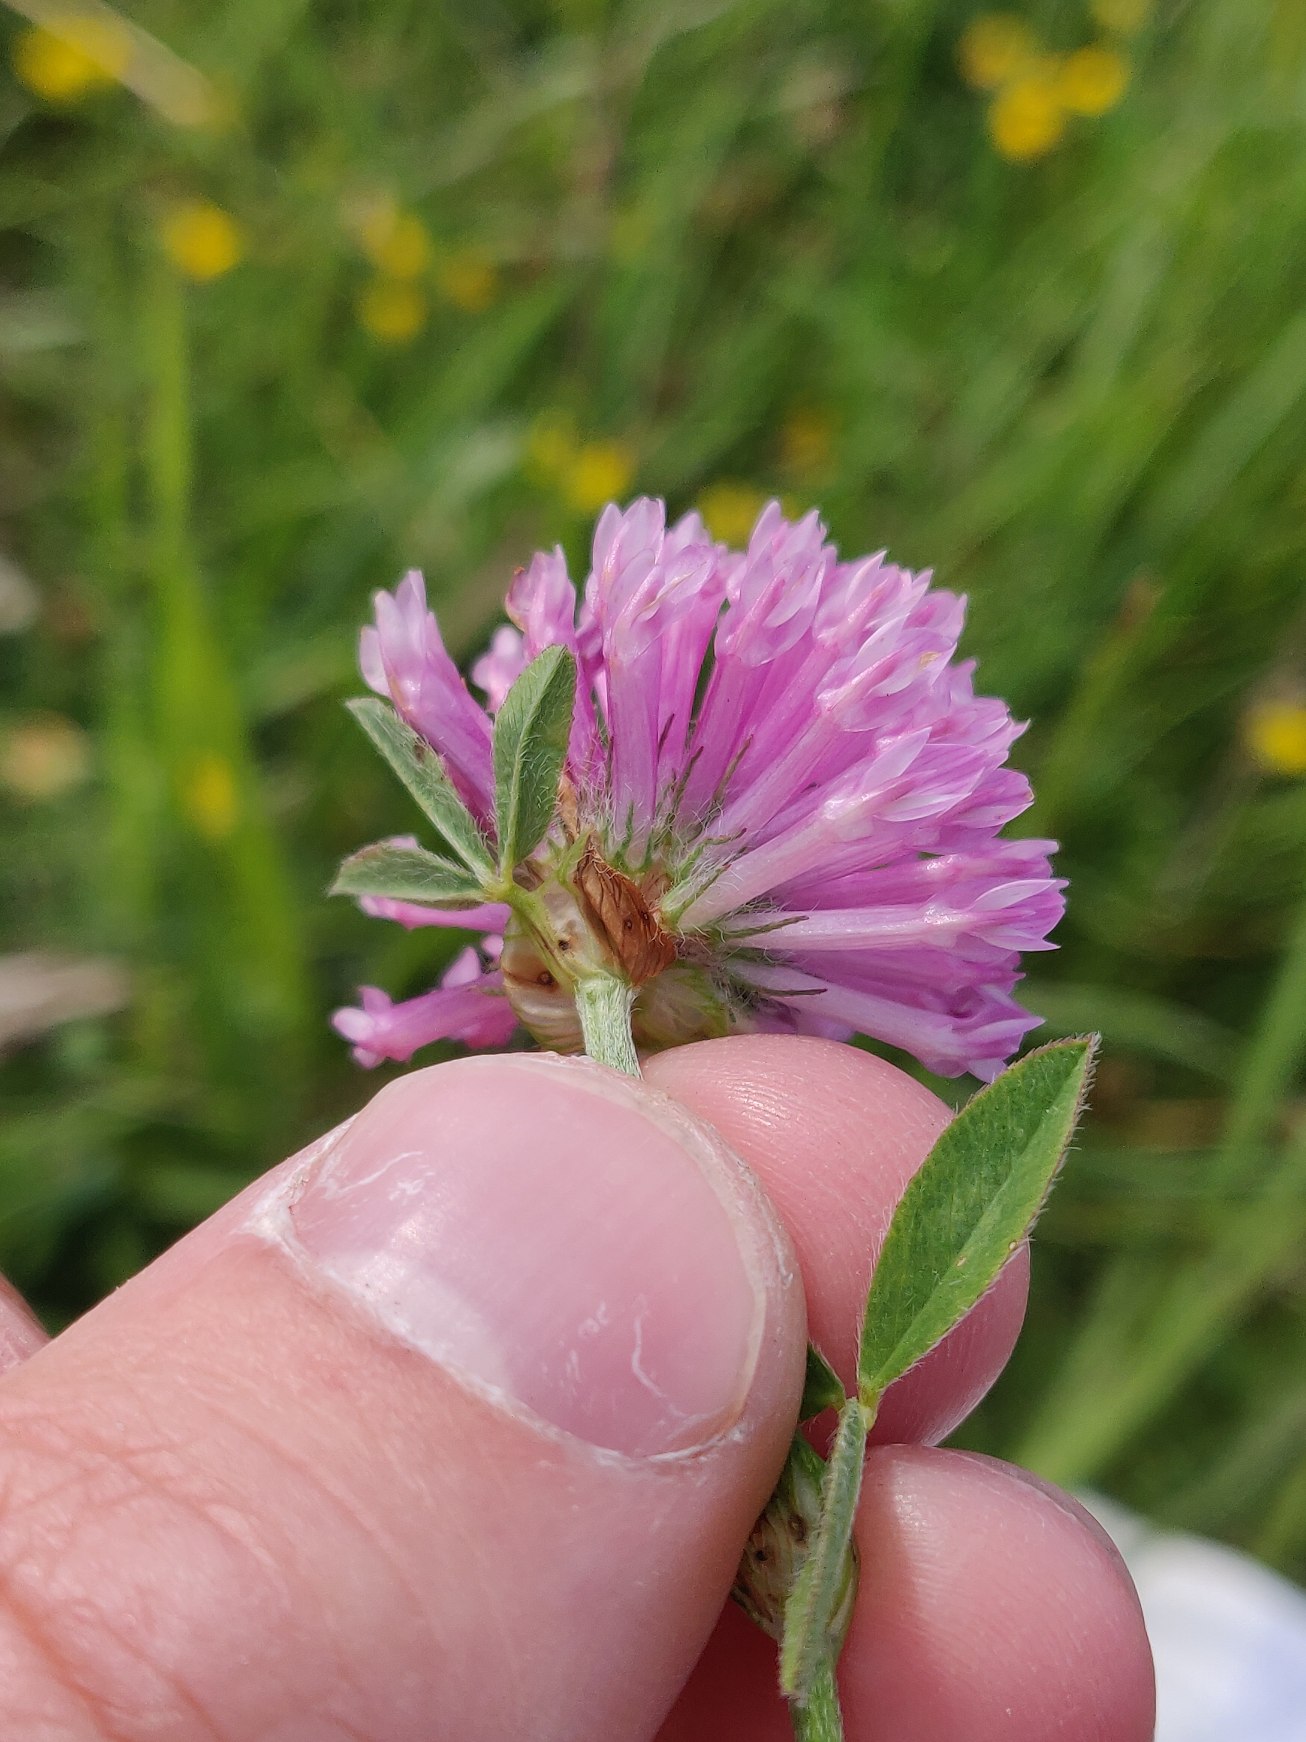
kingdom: Plantae
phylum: Tracheophyta
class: Magnoliopsida
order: Fabales
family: Fabaceae
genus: Trifolium
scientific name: Trifolium medium
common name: Bugtet kløver
